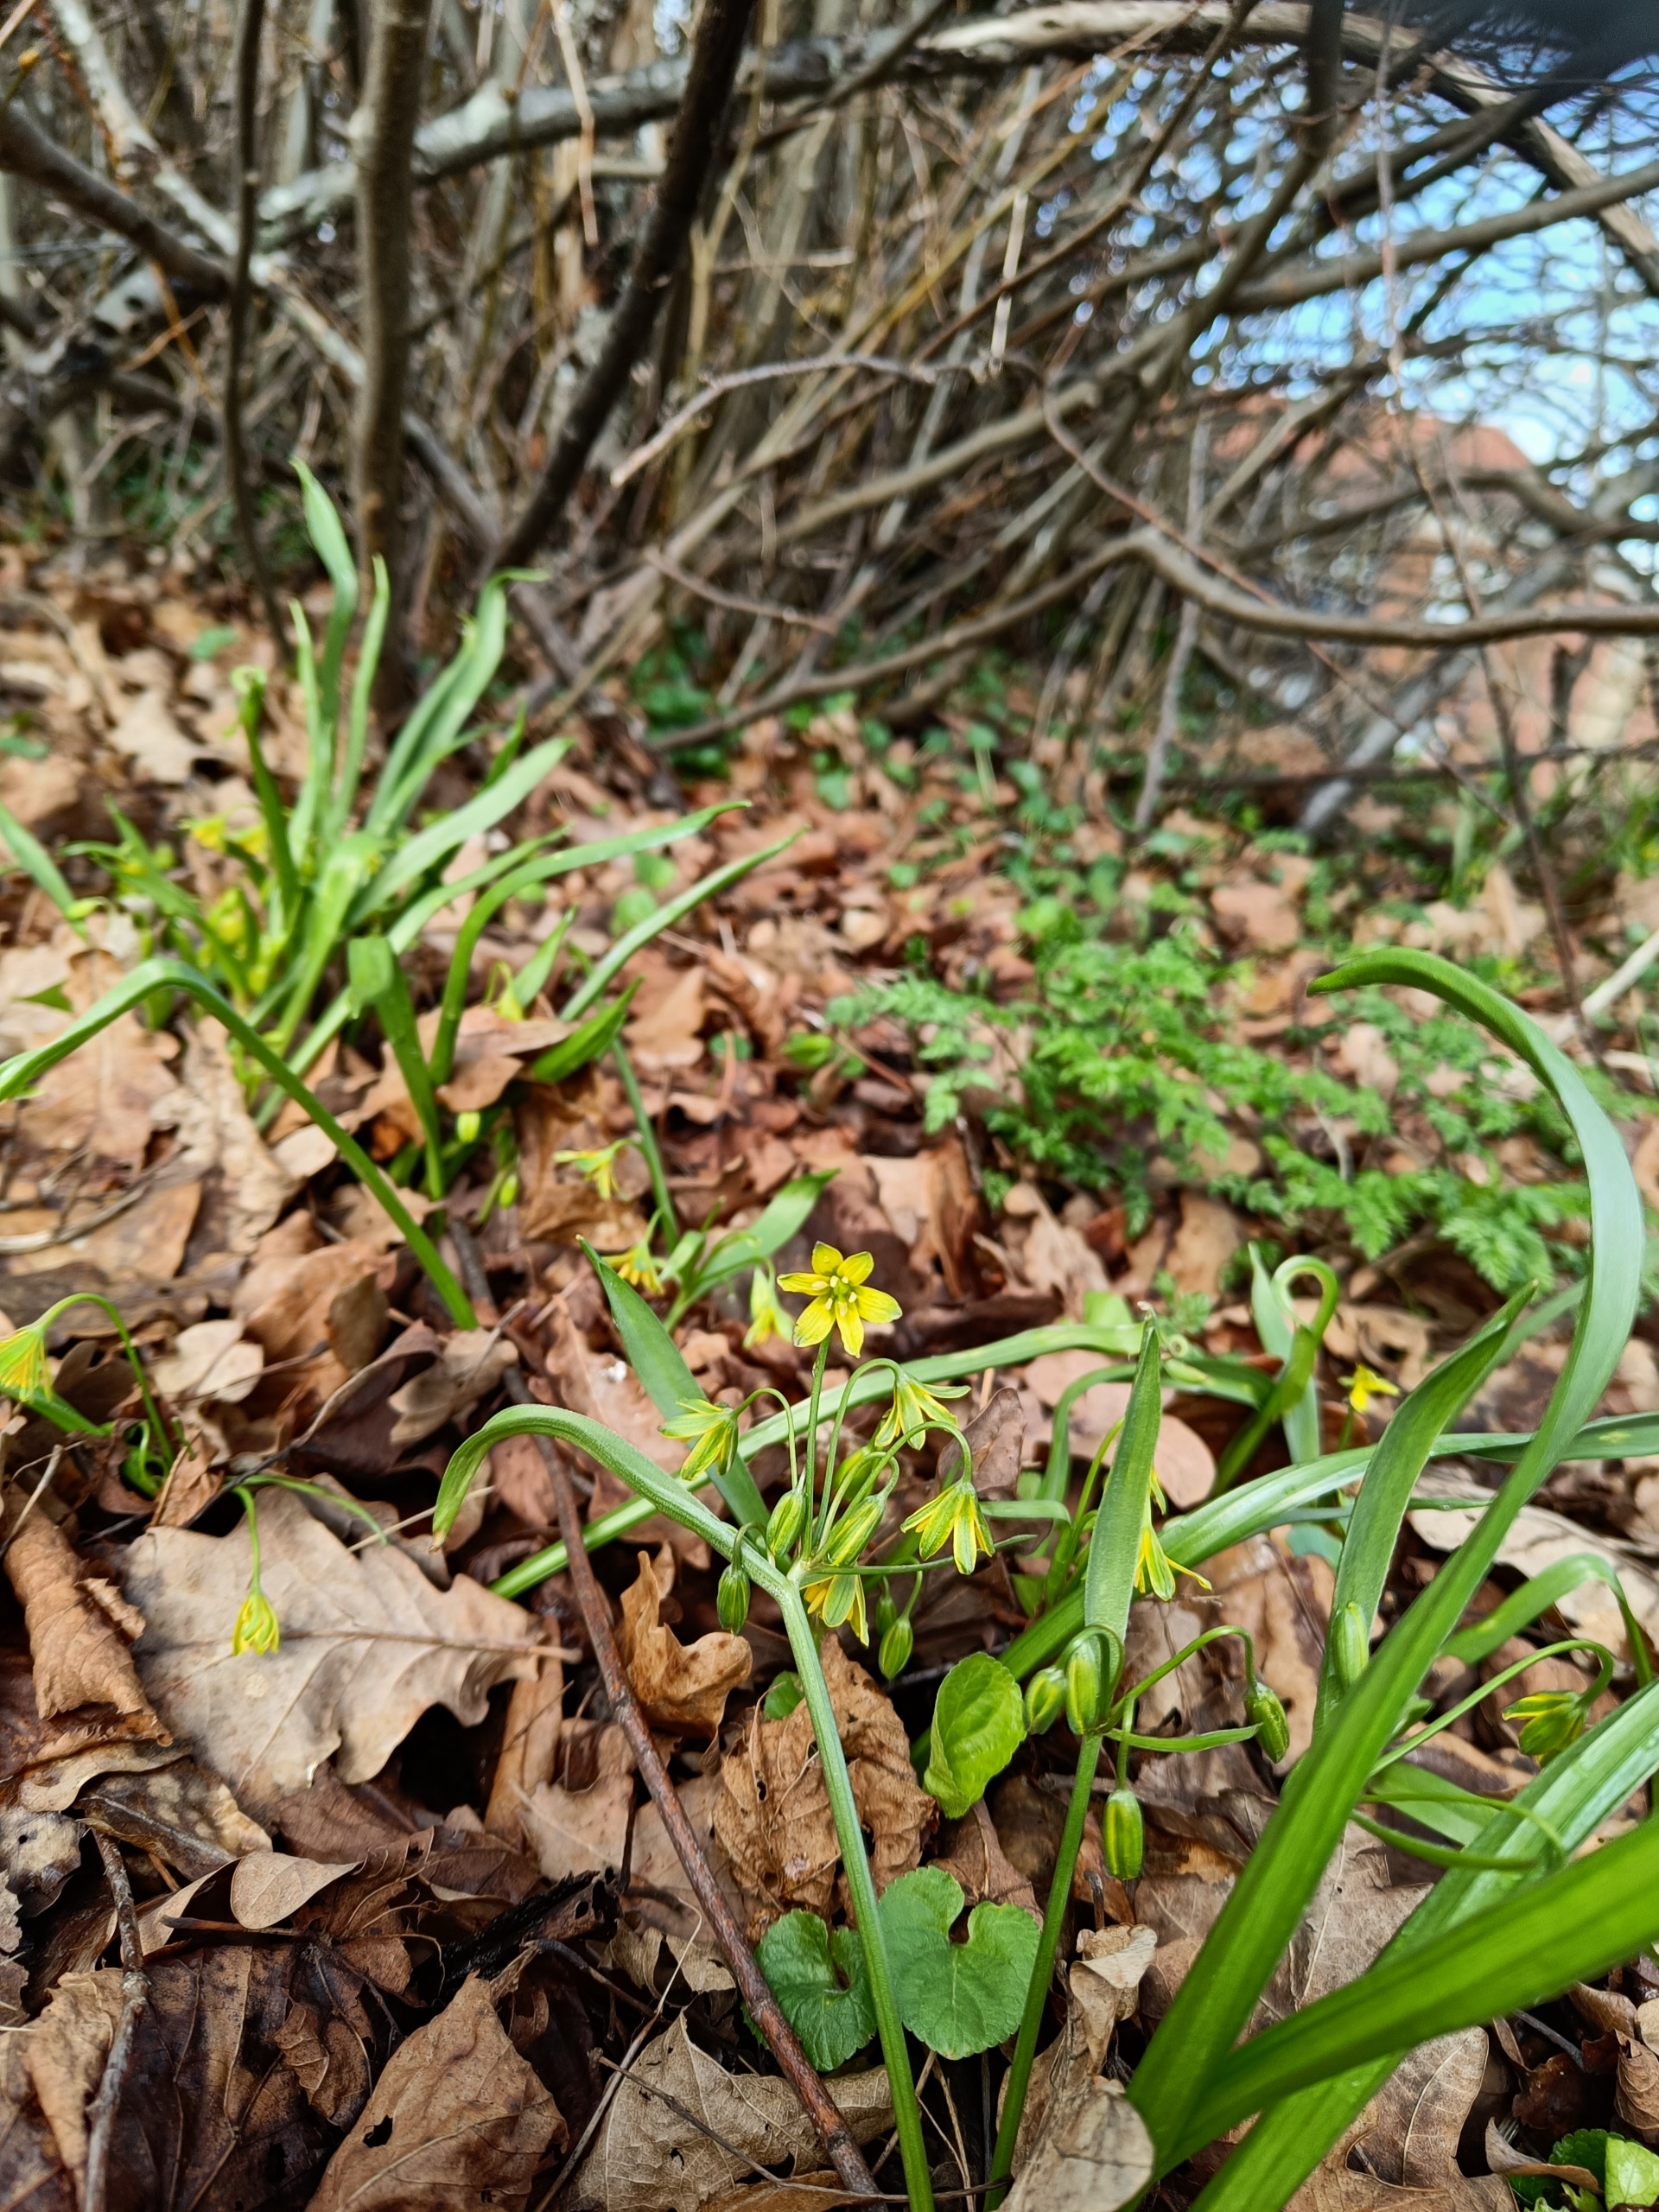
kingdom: Plantae
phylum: Tracheophyta
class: Liliopsida
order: Liliales
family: Liliaceae
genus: Gagea
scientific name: Gagea lutea
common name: Almindelig guldstjerne
